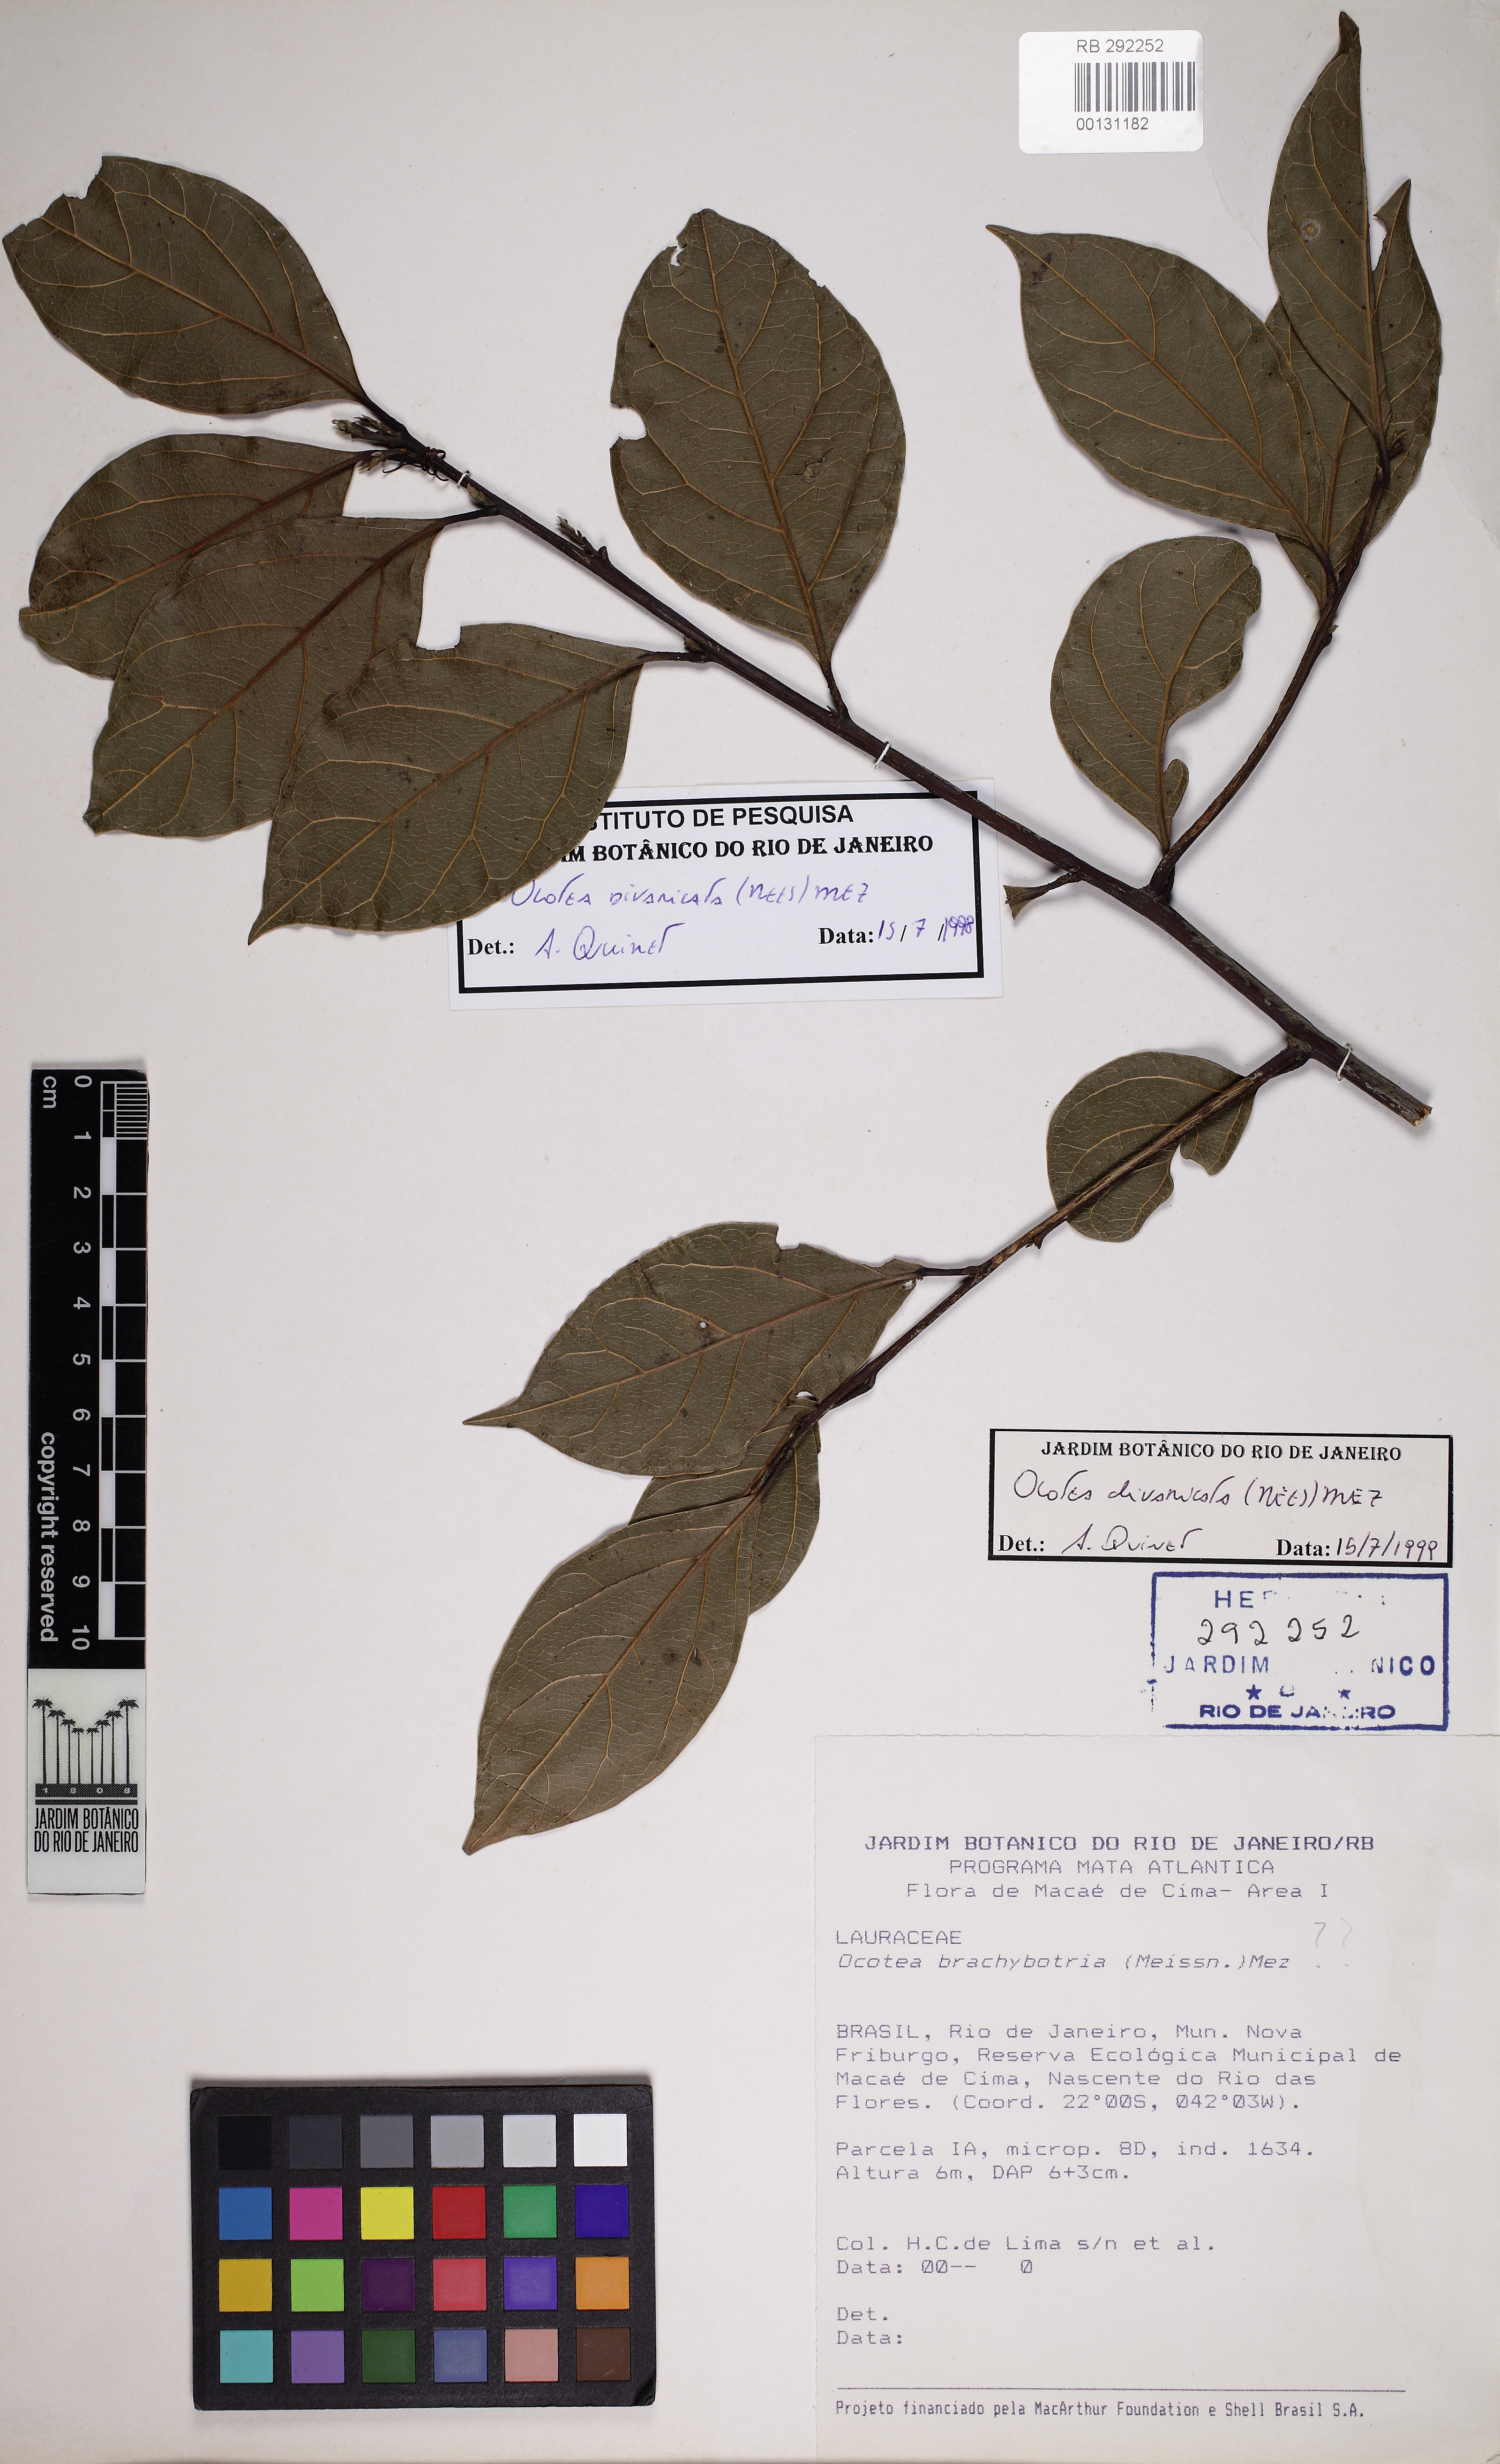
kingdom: Plantae
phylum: Tracheophyta
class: Magnoliopsida
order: Laurales
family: Lauraceae
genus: Ocotea
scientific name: Ocotea divaricata
